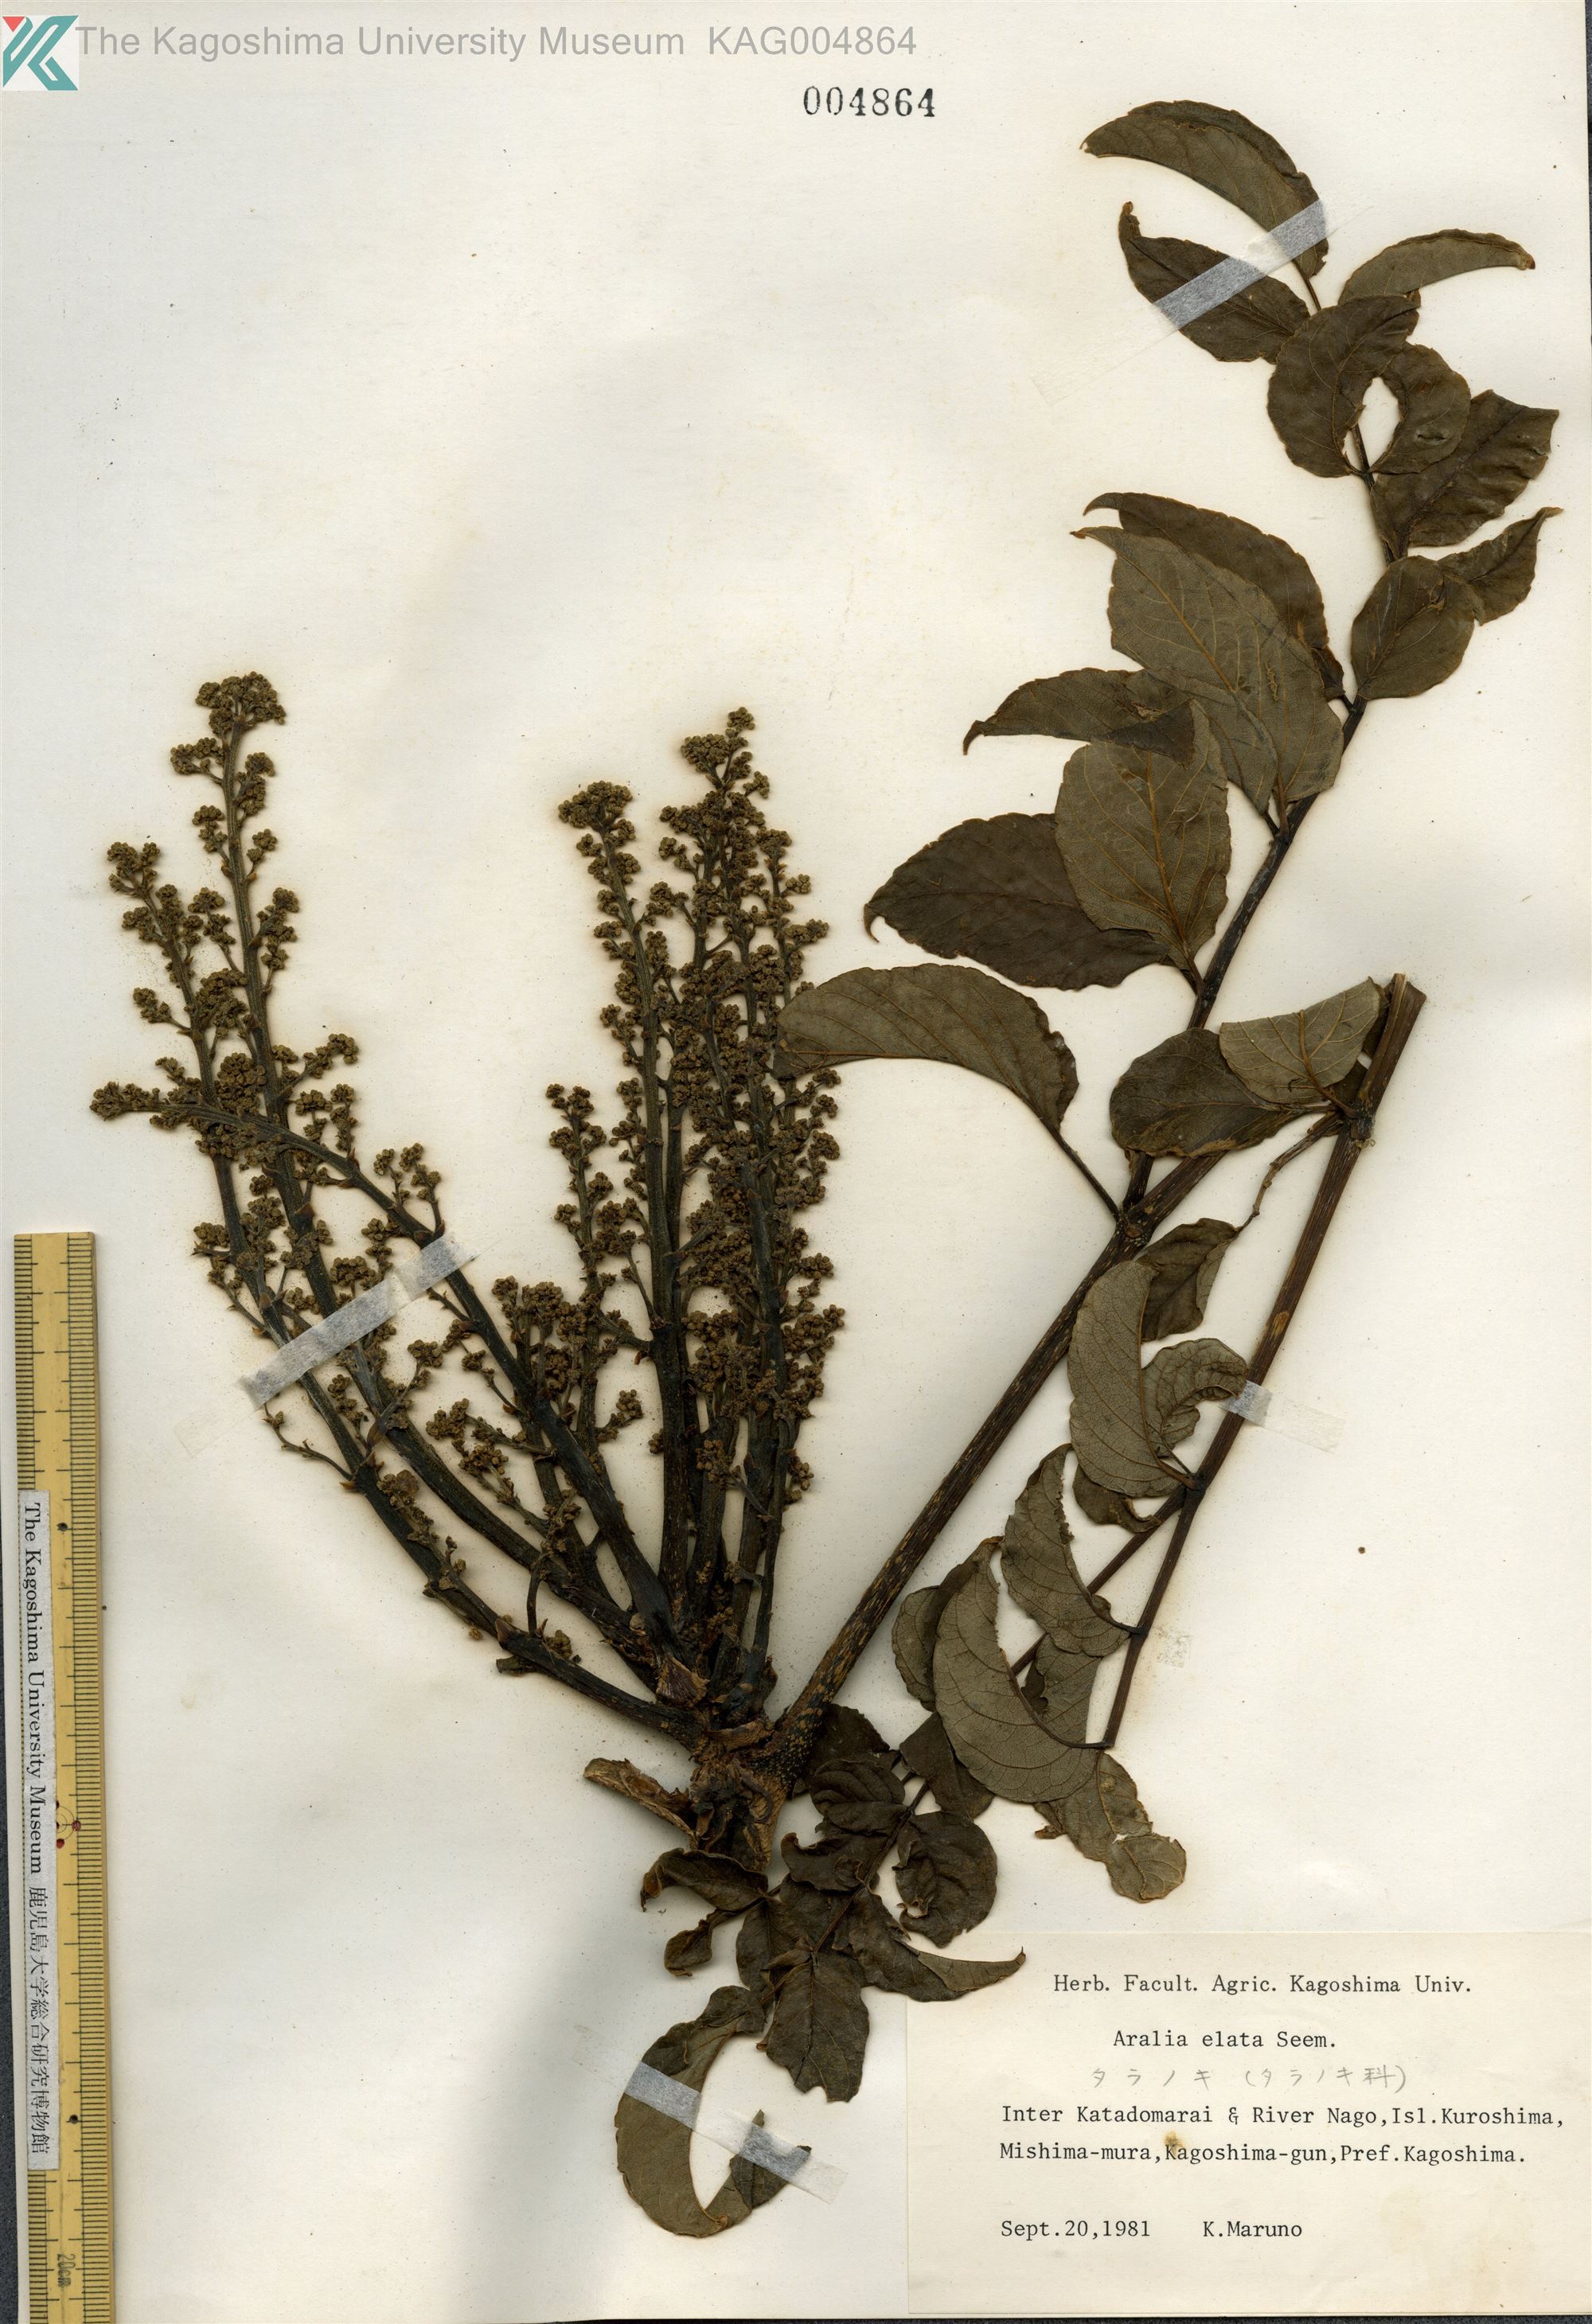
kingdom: Plantae
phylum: Tracheophyta
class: Magnoliopsida
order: Apiales
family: Araliaceae
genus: Aralia
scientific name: Aralia elata
